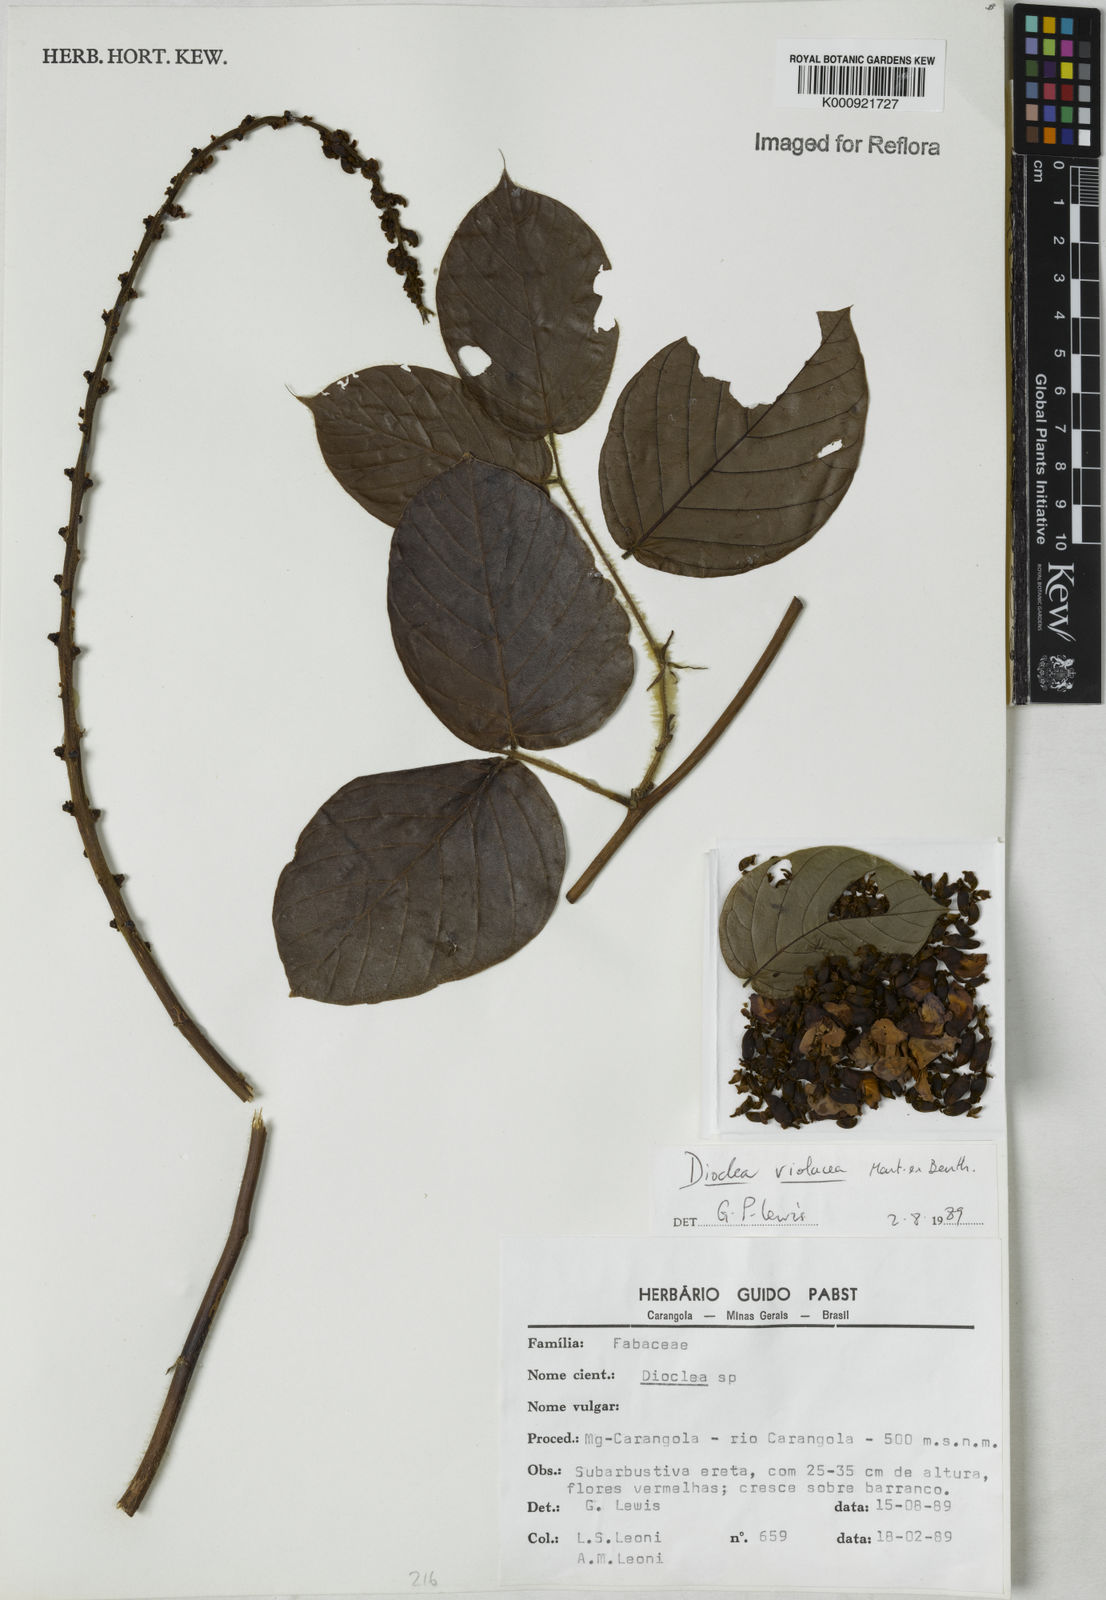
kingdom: Plantae
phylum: Tracheophyta
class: Magnoliopsida
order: Fabales
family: Fabaceae
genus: Macropsychanthus
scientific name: Macropsychanthus violaceus
